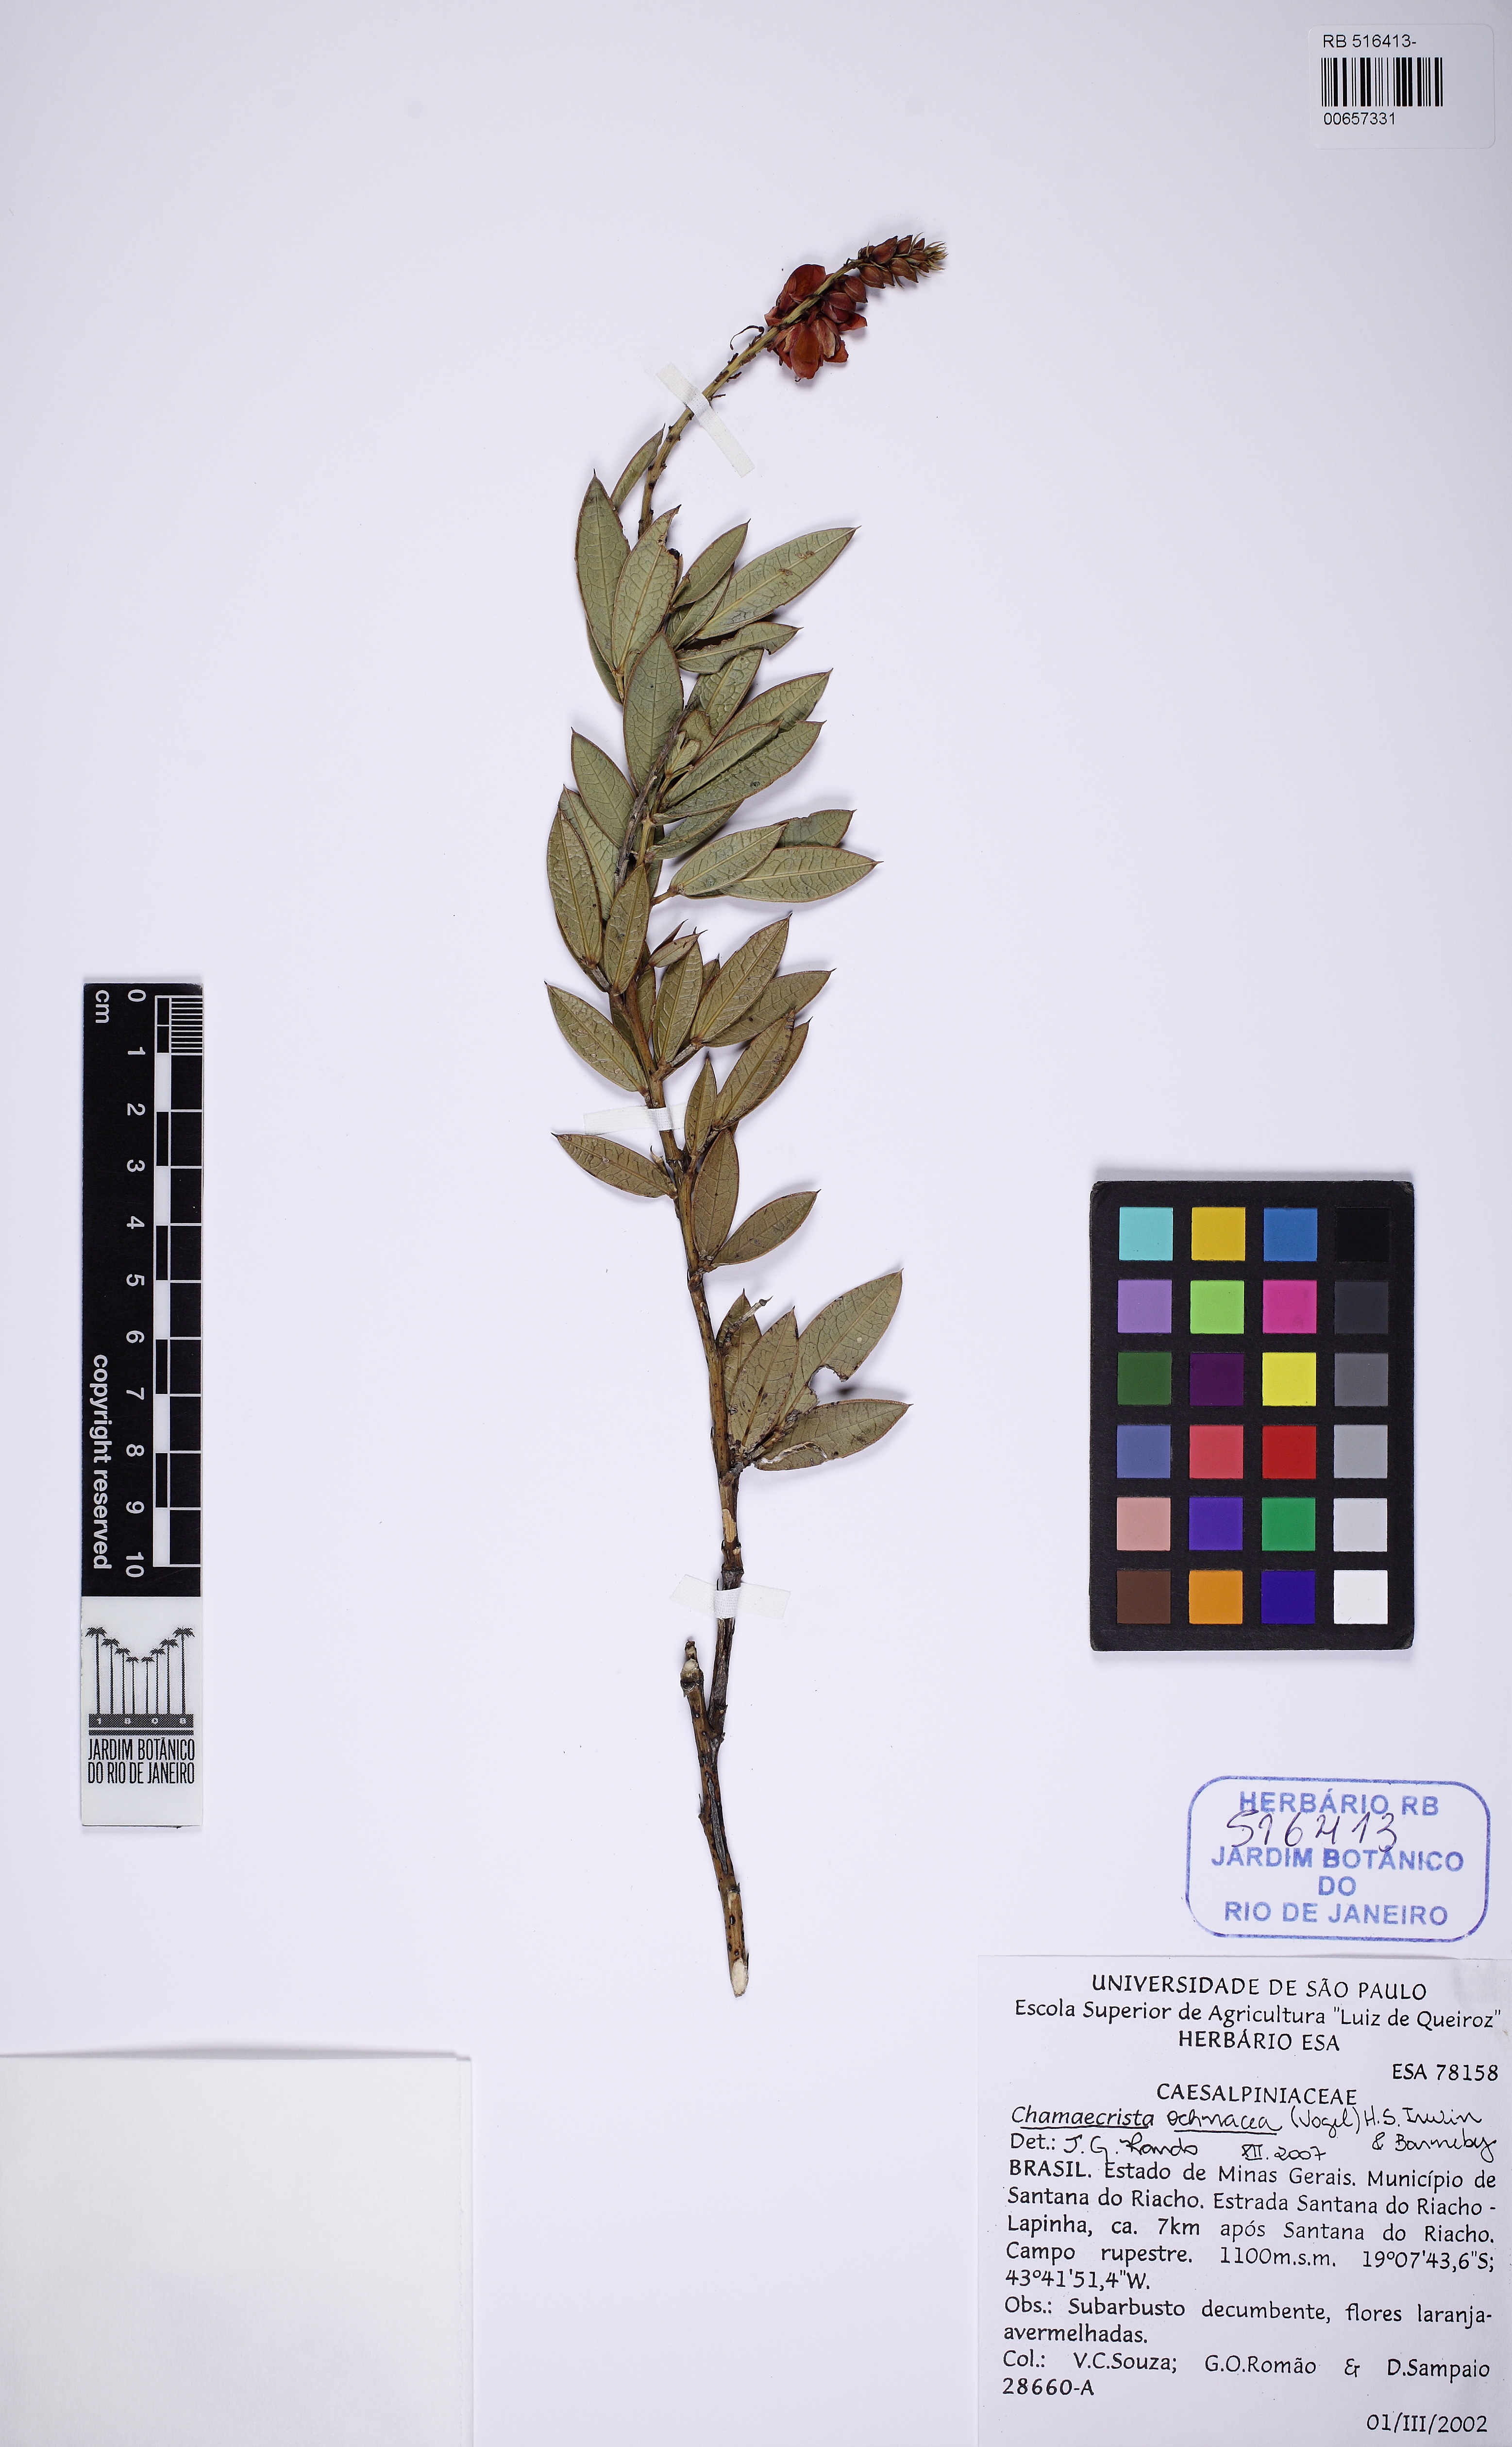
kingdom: Plantae
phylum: Tracheophyta
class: Magnoliopsida
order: Fabales
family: Fabaceae
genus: Chamaecrista
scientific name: Chamaecrista ochnacea
